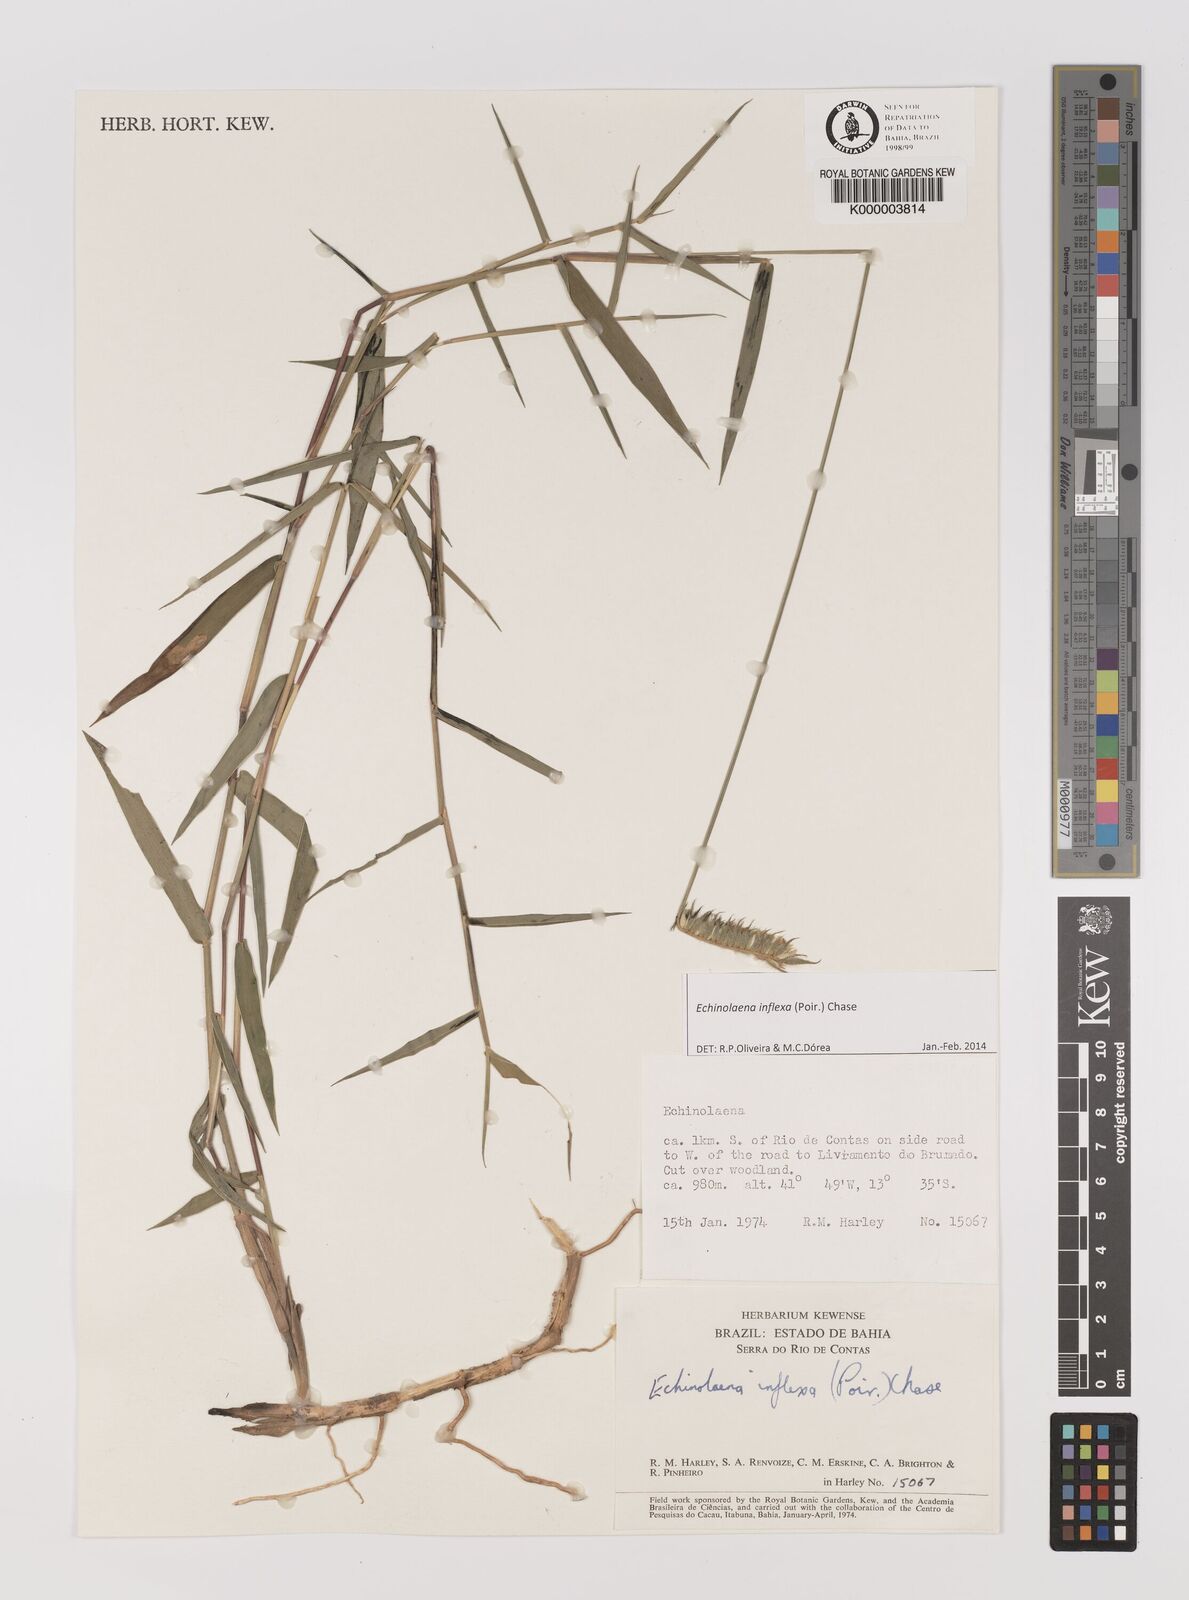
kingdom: Plantae
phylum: Tracheophyta
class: Liliopsida
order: Poales
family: Poaceae
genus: Echinolaena
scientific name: Echinolaena inflexa
